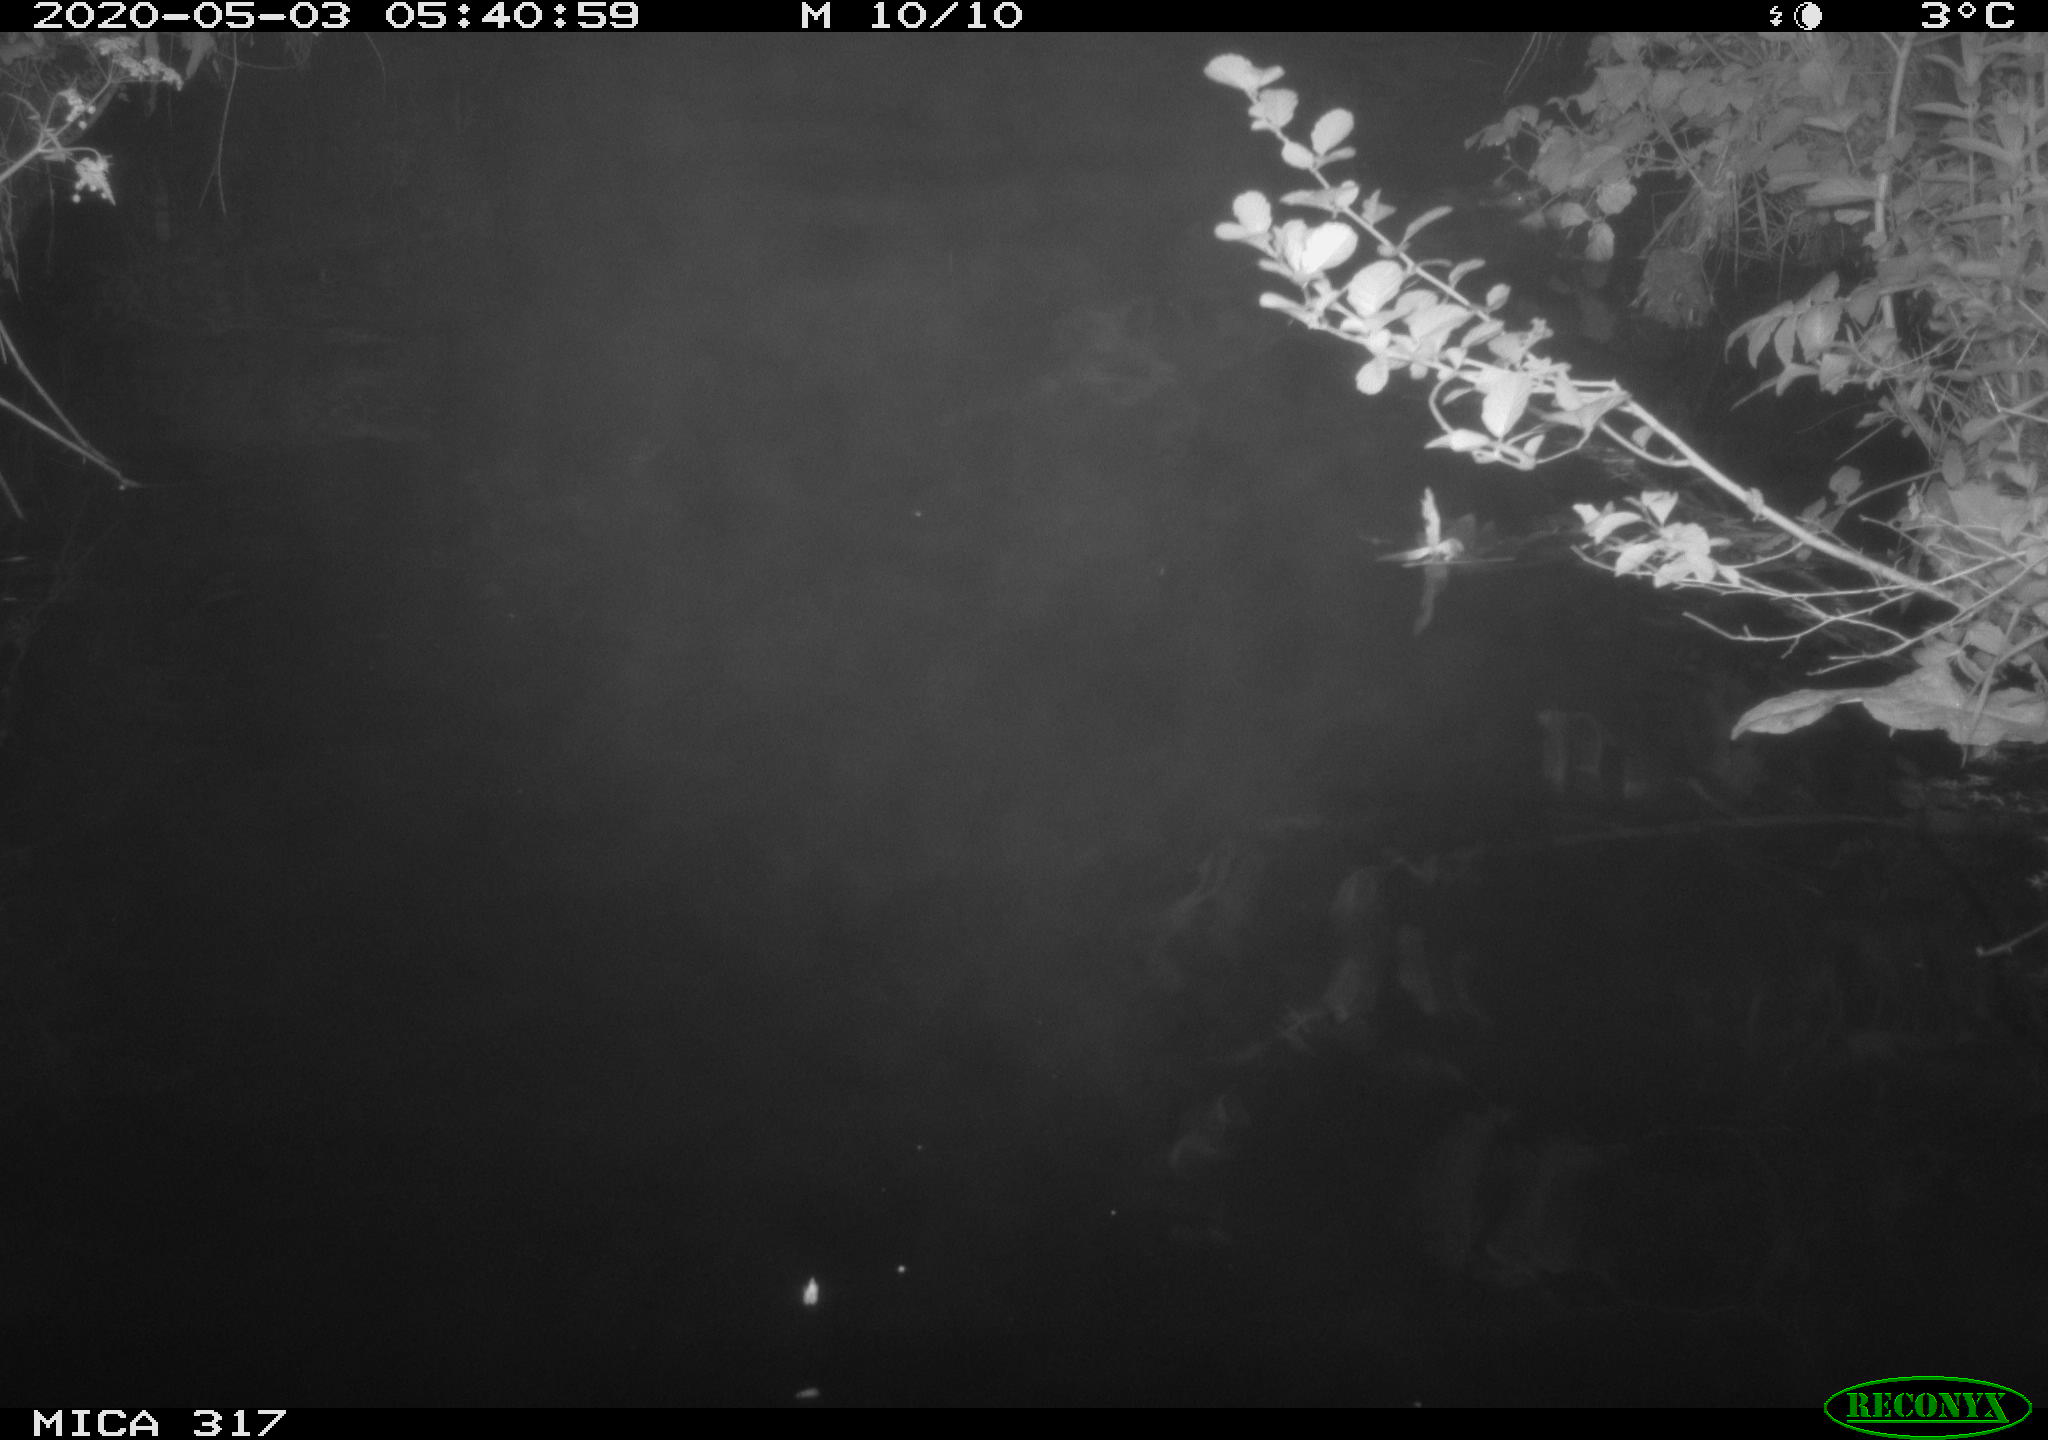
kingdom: Animalia
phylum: Chordata
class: Aves
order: Anseriformes
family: Anatidae
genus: Anas
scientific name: Anas platyrhynchos
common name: Mallard
